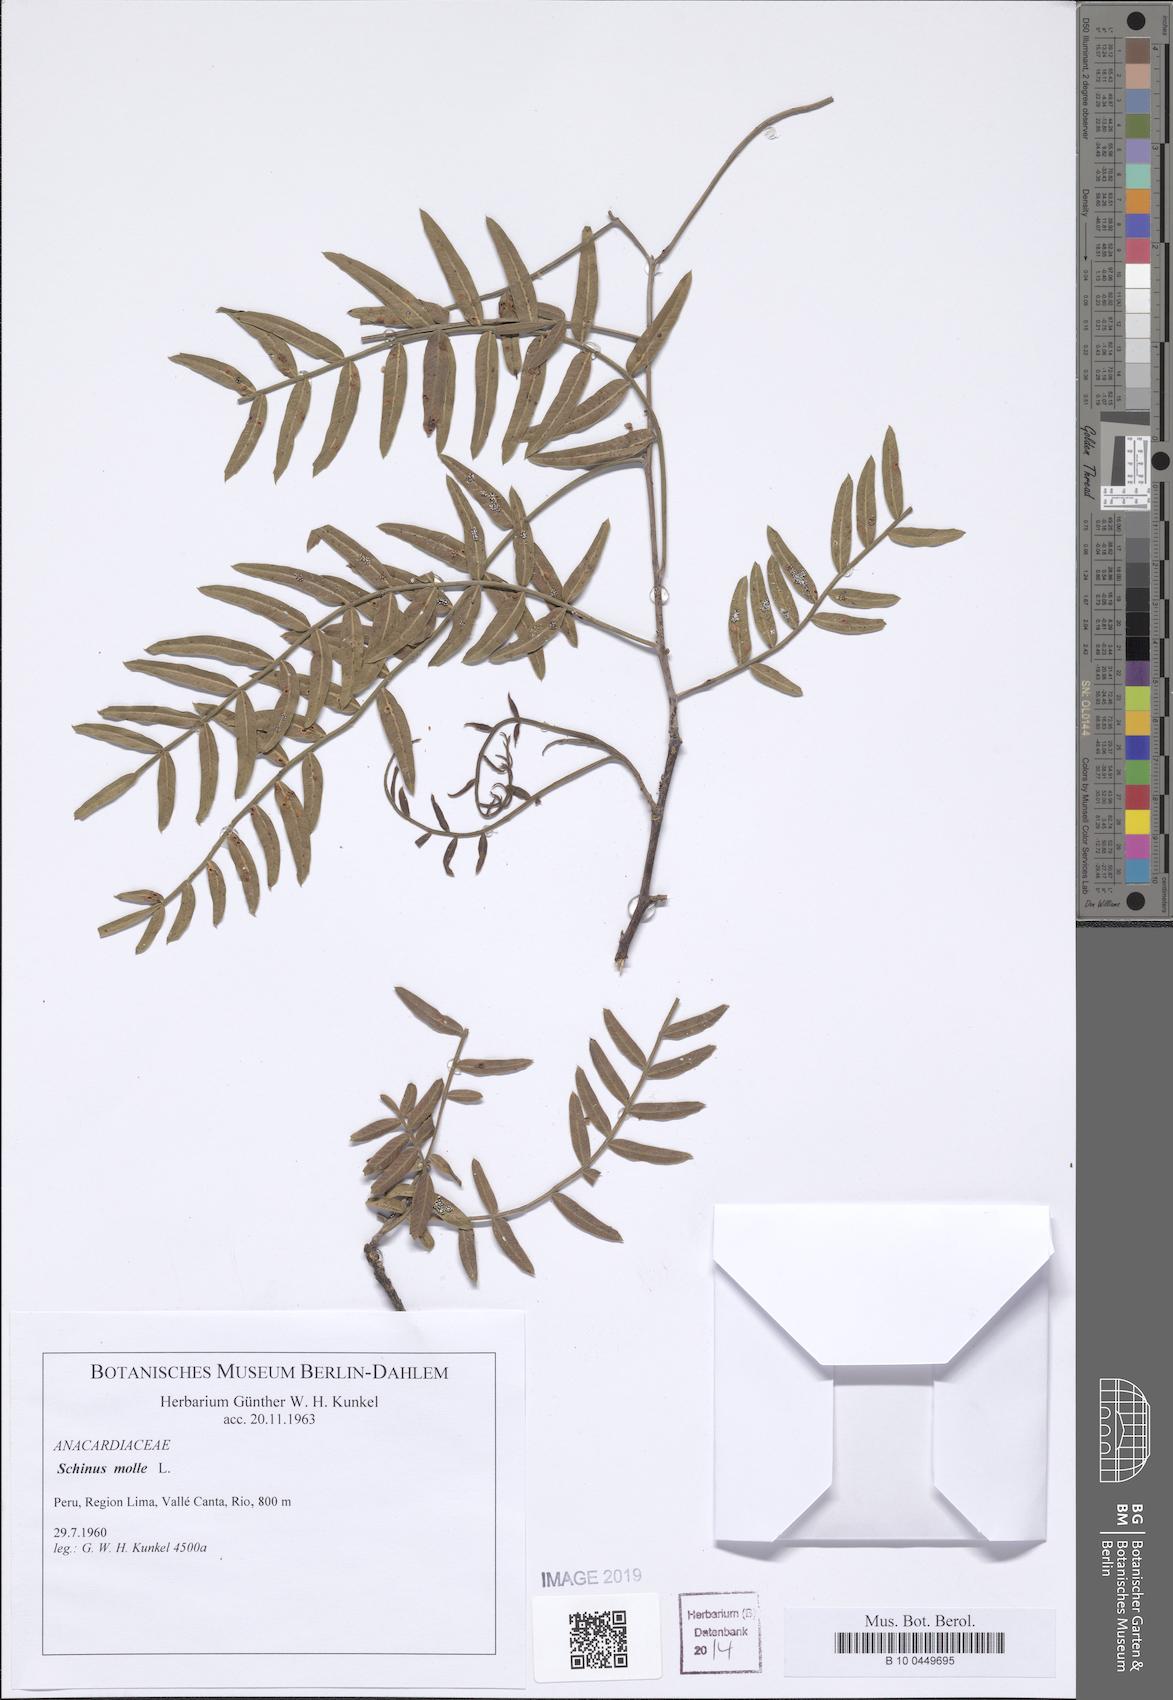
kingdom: Plantae
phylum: Tracheophyta
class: Magnoliopsida
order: Sapindales
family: Anacardiaceae
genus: Schinus
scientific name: Schinus molle
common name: Peruvian peppertree
